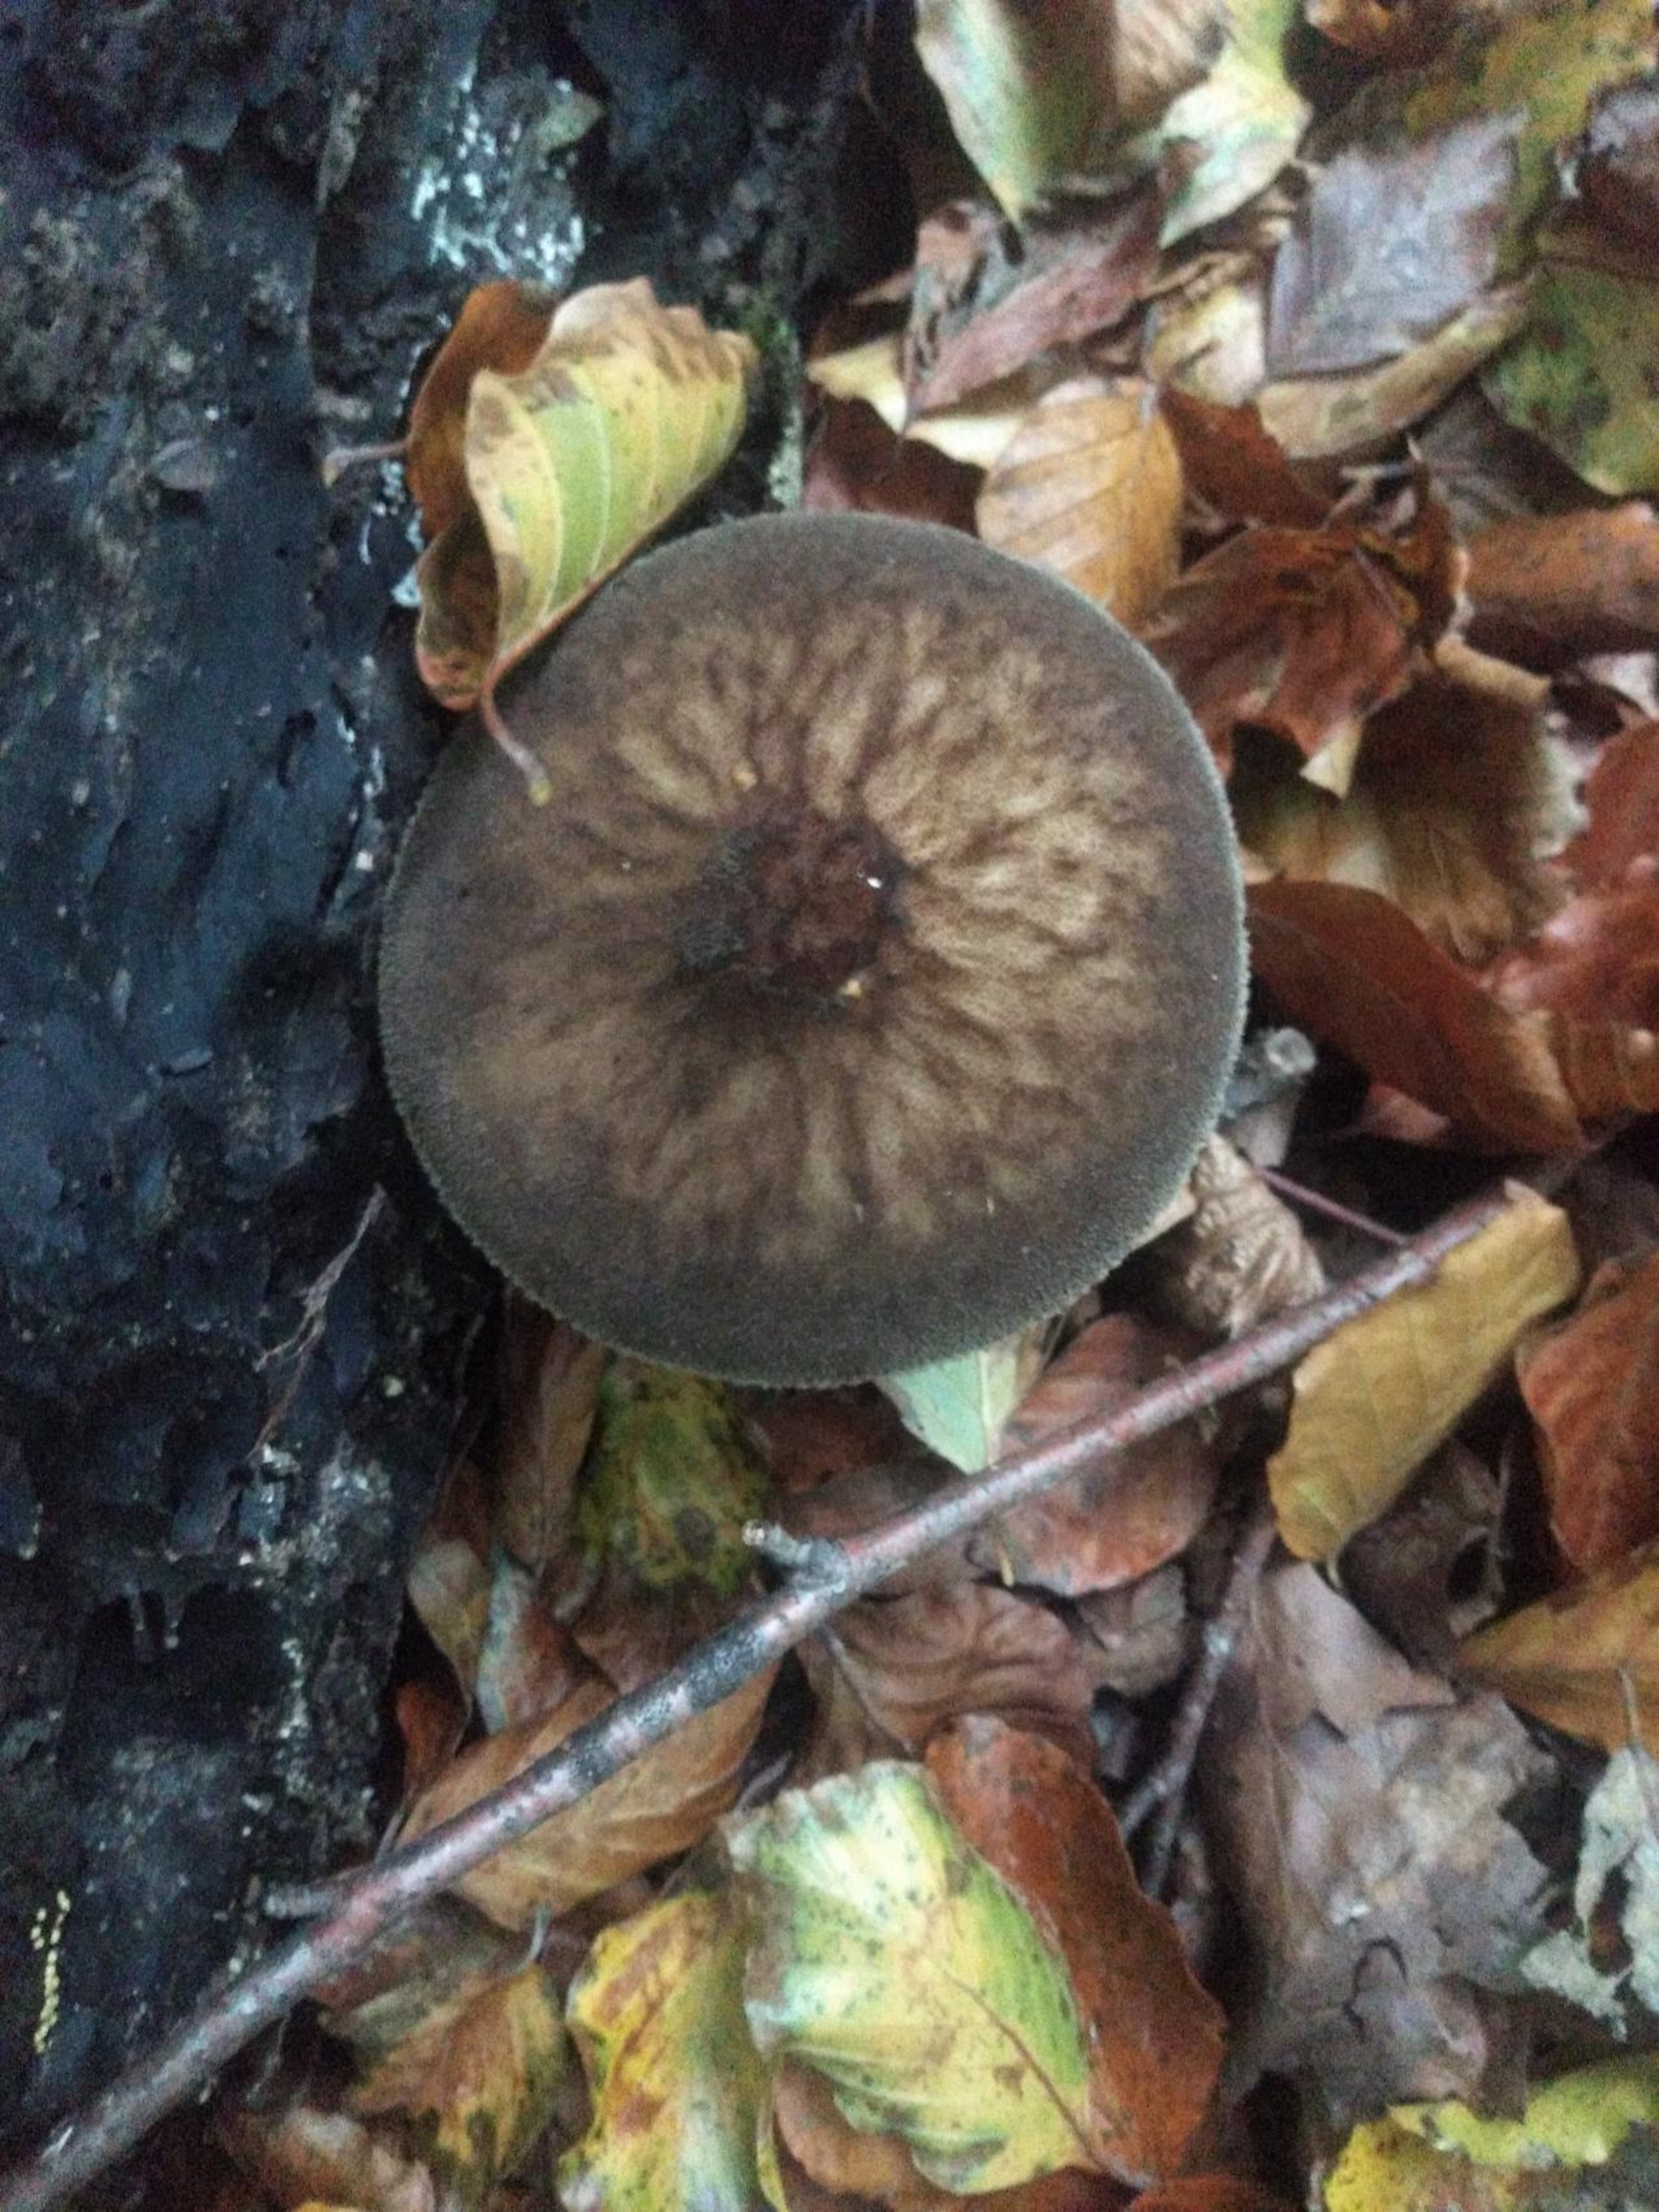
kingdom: Fungi
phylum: Basidiomycota
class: Agaricomycetes
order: Agaricales
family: Pluteaceae
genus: Pluteus
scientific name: Pluteus umbrosus
